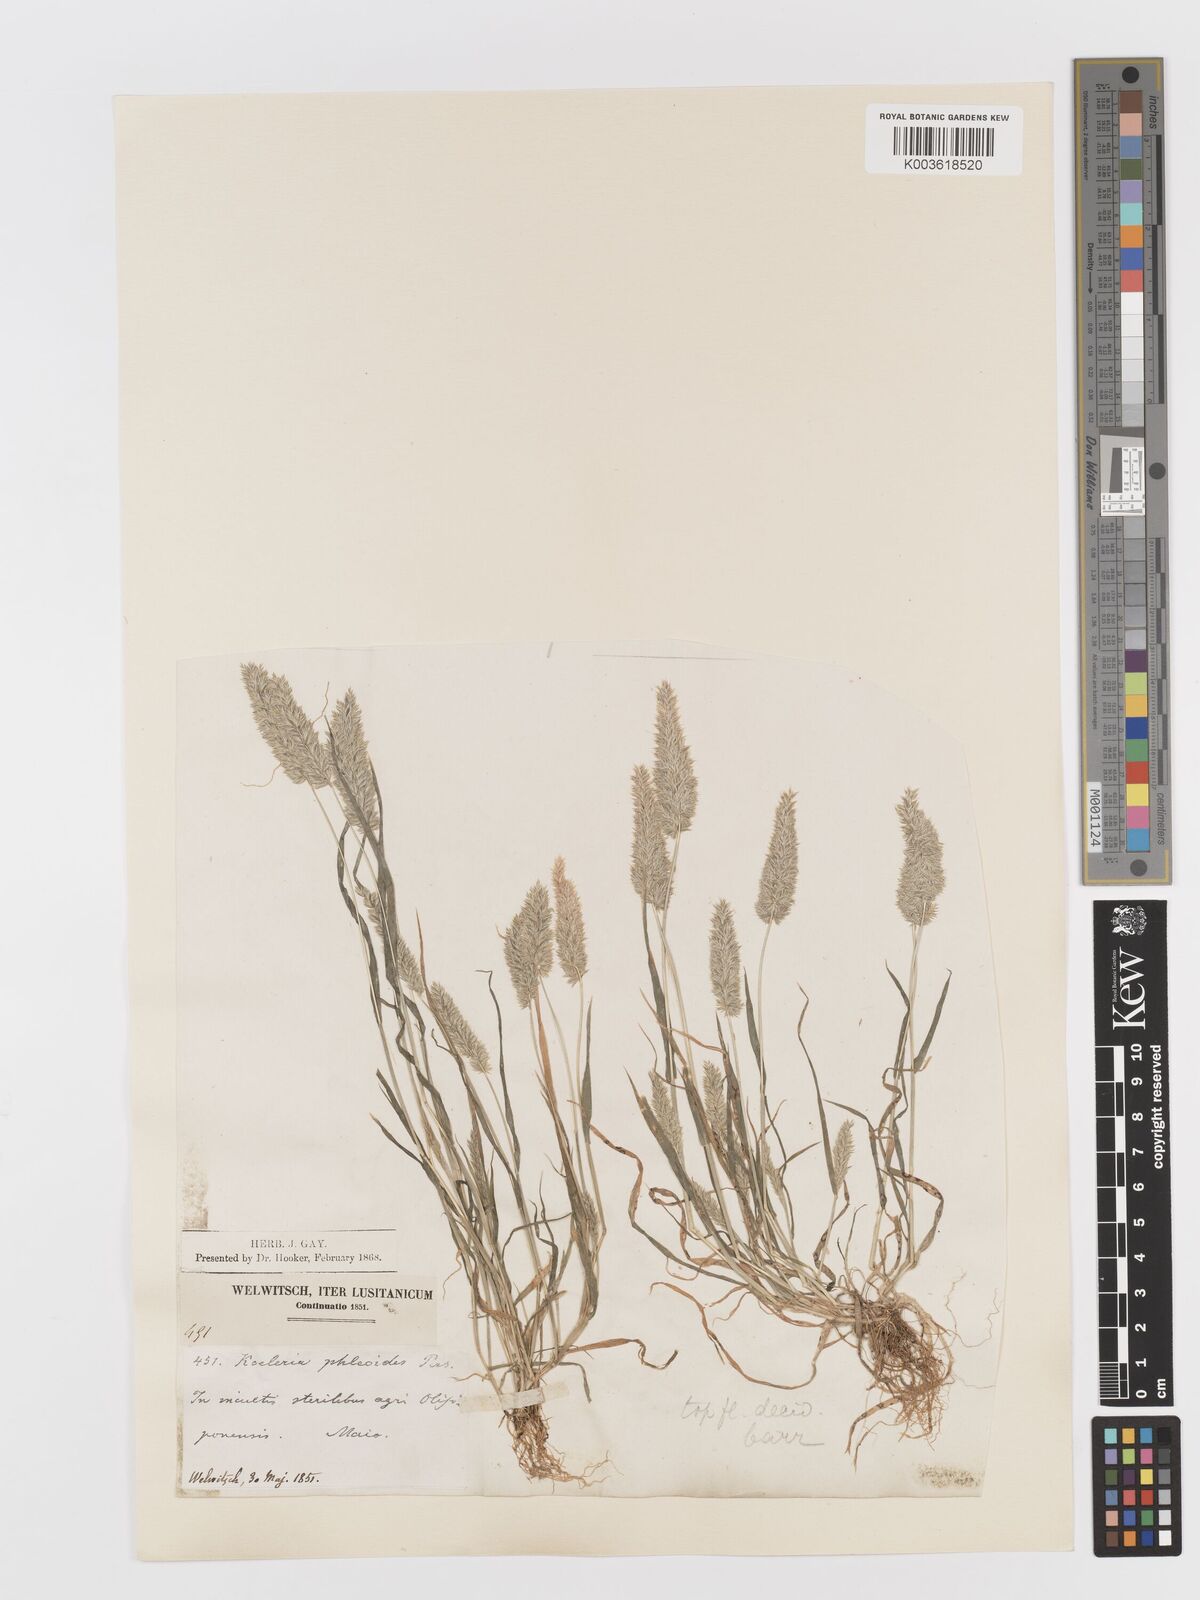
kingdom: Plantae
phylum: Tracheophyta
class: Liliopsida
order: Poales
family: Poaceae
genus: Rostraria
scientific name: Rostraria cristata
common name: Mediterranean hair-grass
